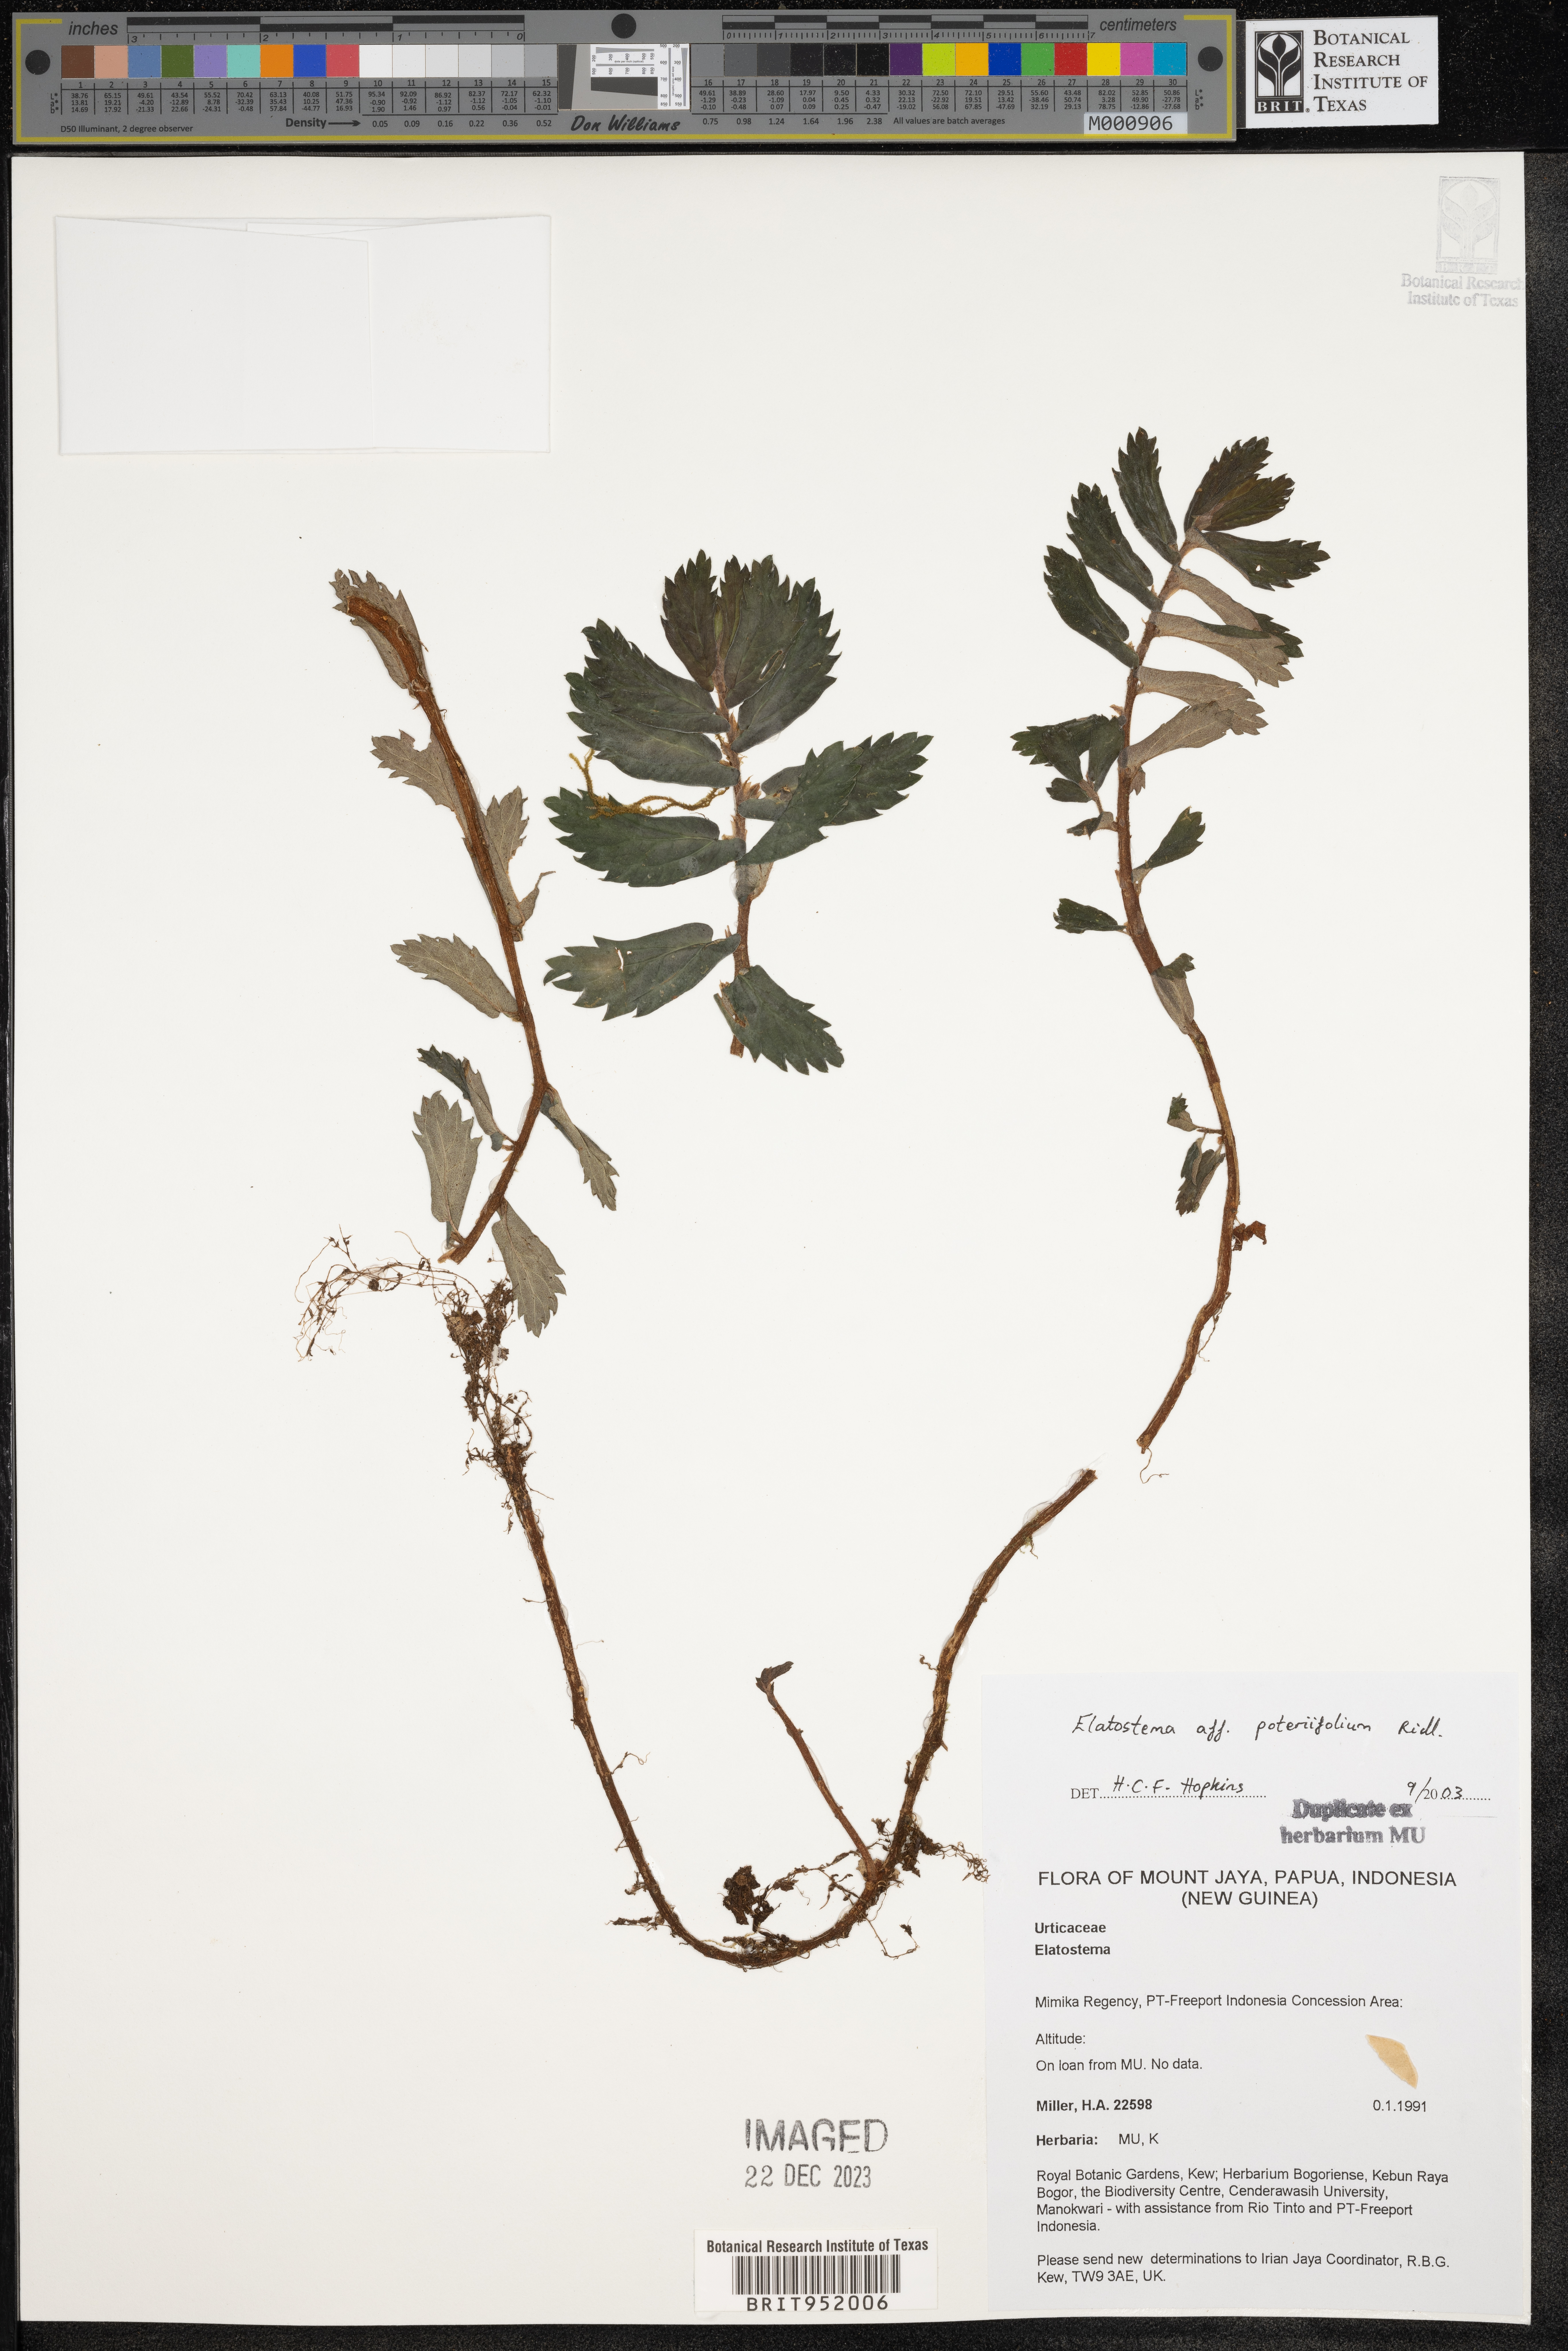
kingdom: Plantae
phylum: Tracheophyta
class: Magnoliopsida
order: Rosales
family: Urticaceae
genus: Elatostema
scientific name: Elatostema
